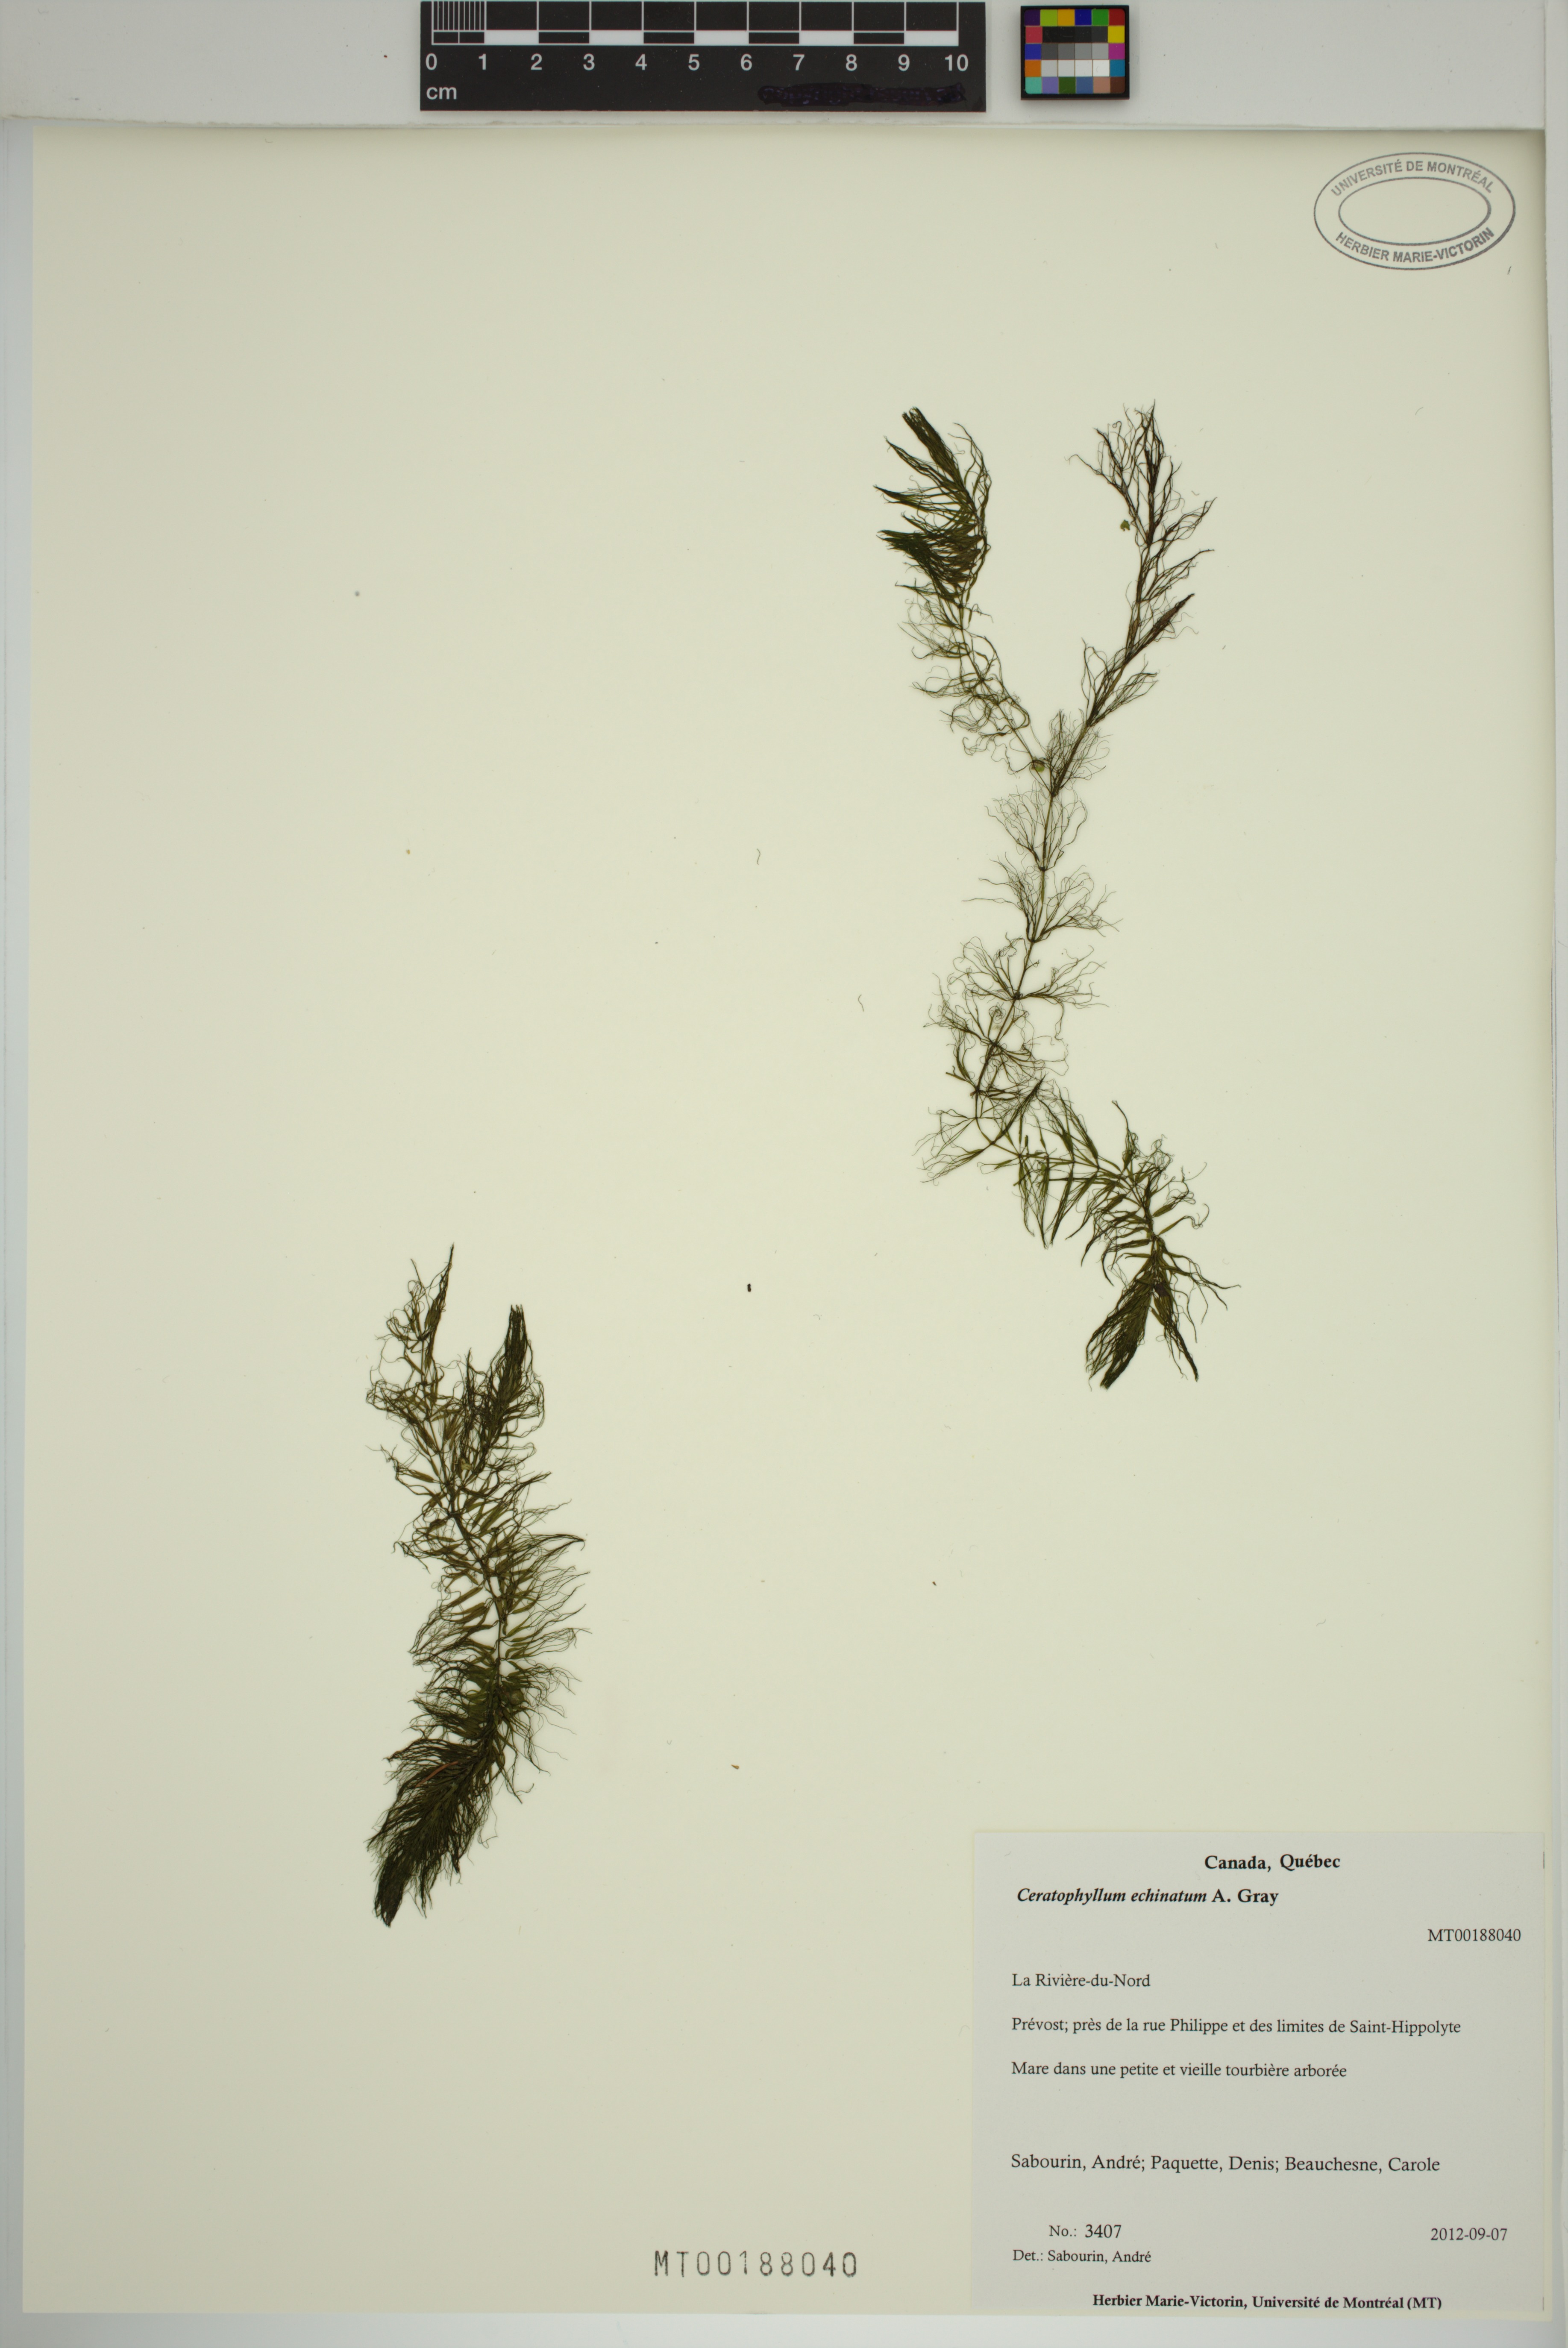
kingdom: Plantae
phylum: Tracheophyta
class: Magnoliopsida
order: Ceratophyllales
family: Ceratophyllaceae
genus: Ceratophyllum
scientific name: Ceratophyllum echinatum
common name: Prickly coontail
